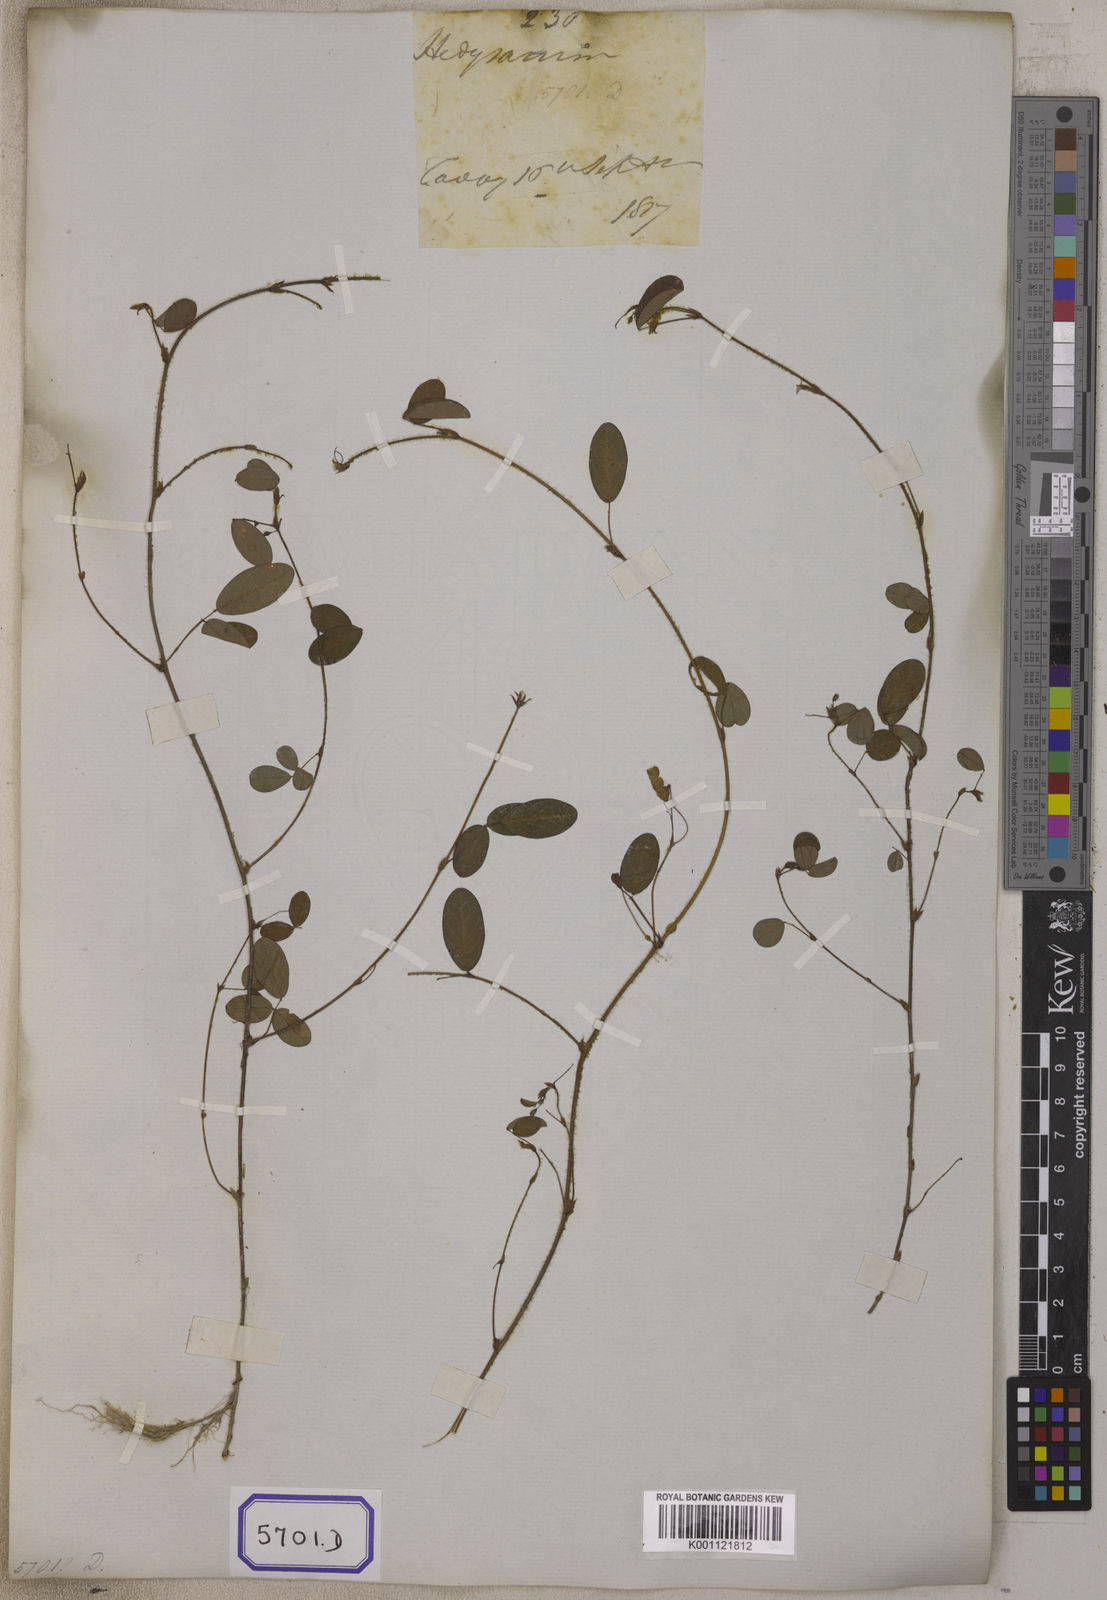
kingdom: Plantae
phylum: Tracheophyta
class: Magnoliopsida
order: Fabales
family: Fabaceae
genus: Desmodium
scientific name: Desmodium
